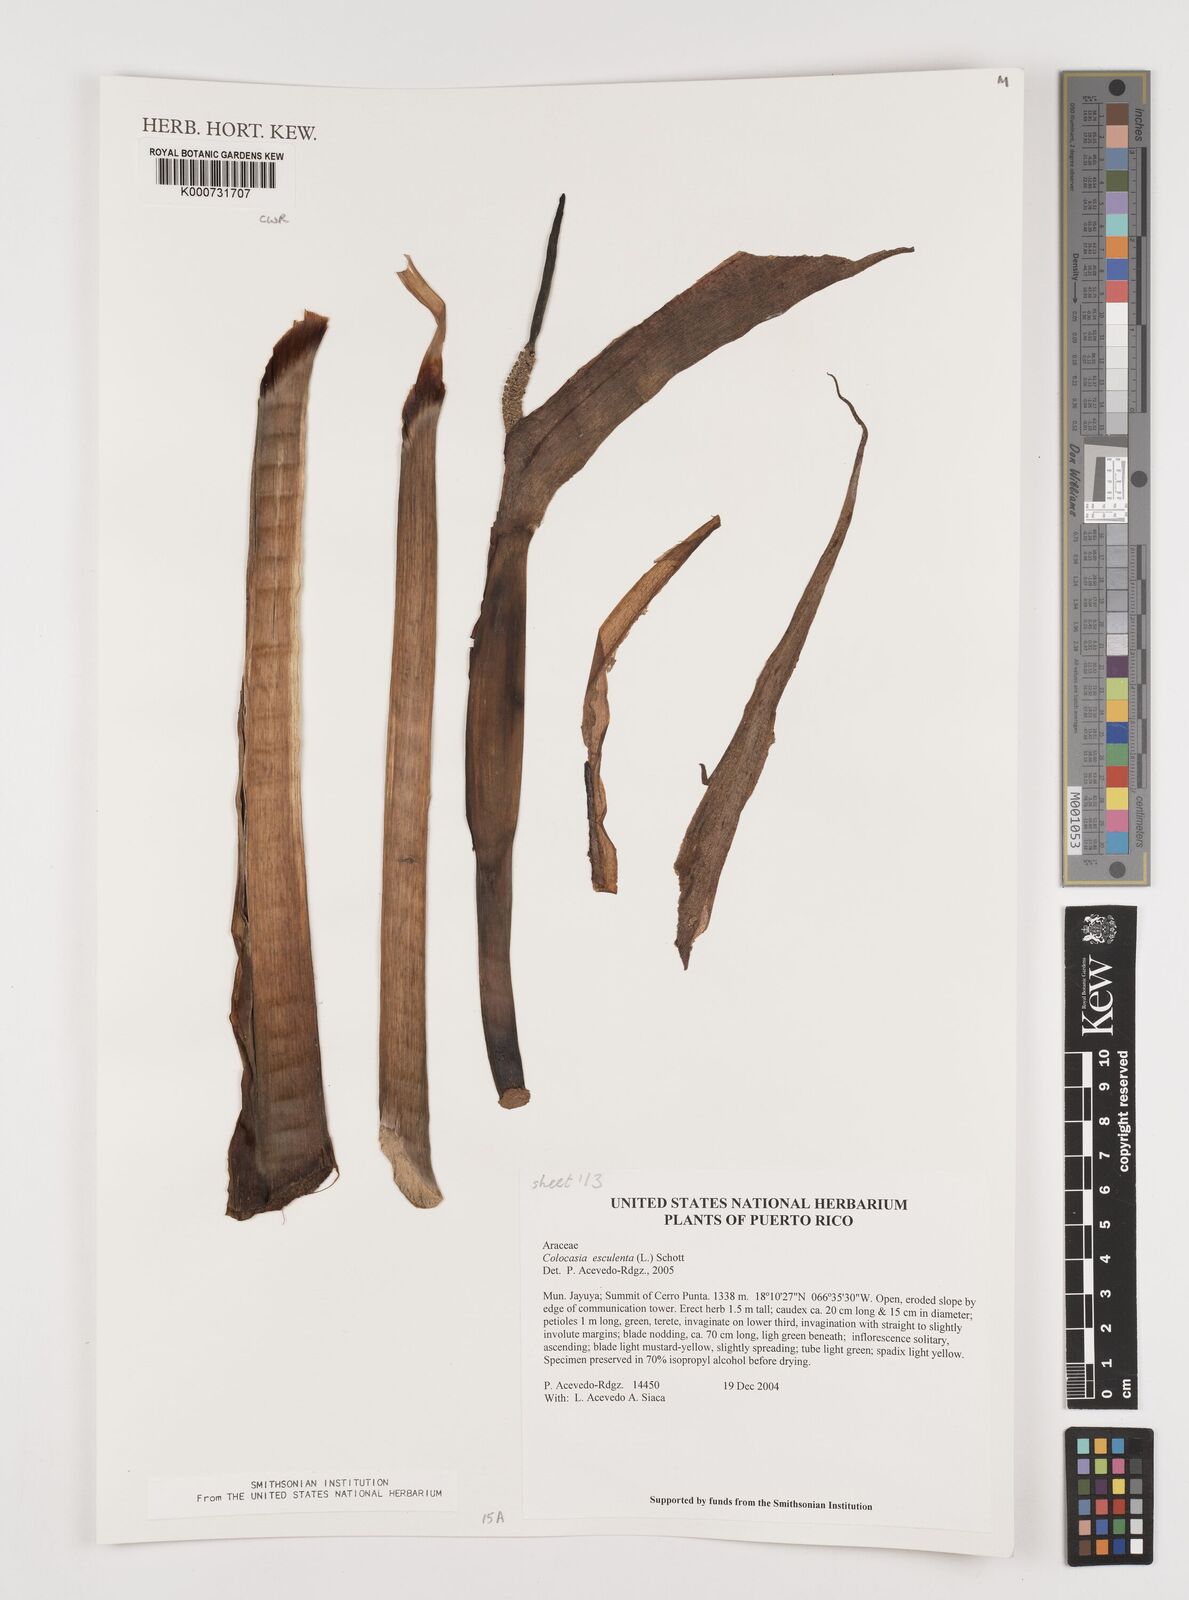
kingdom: Plantae
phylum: Tracheophyta
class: Liliopsida
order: Alismatales
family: Araceae
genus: Colocasia
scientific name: Colocasia esculenta
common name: Taro
